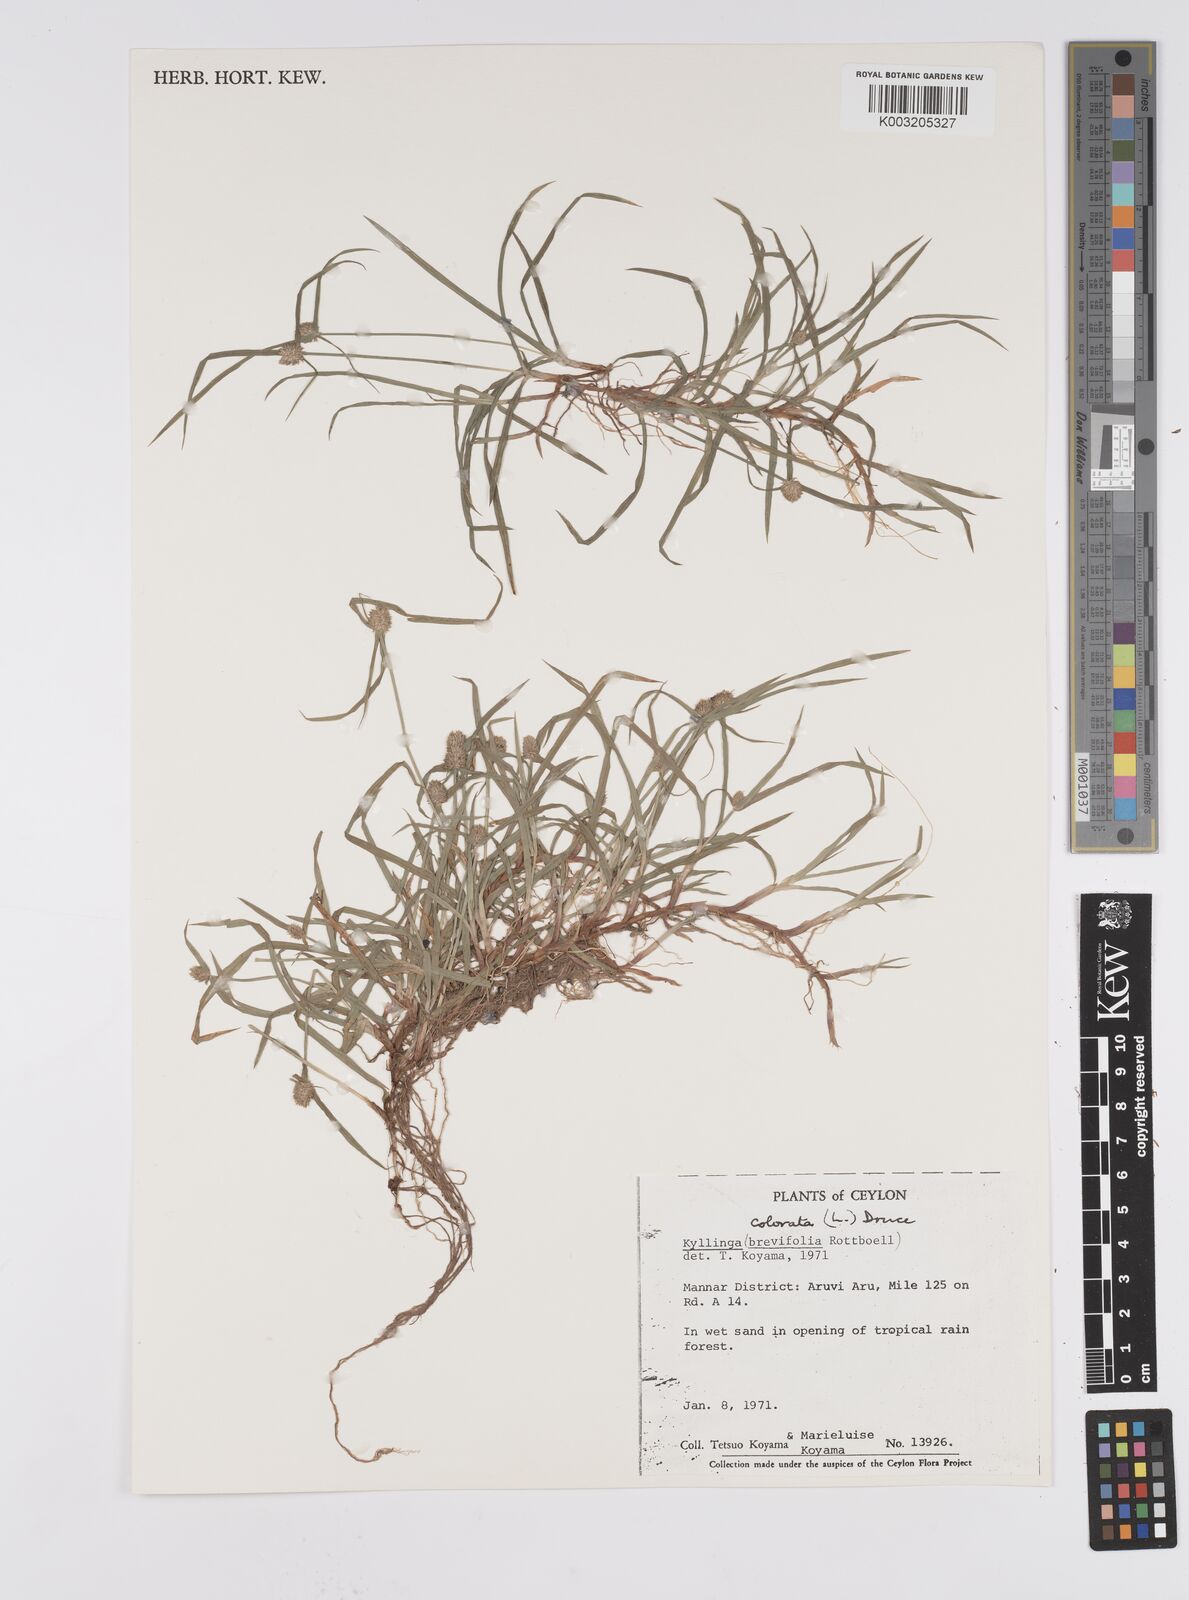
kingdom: Plantae
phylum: Tracheophyta
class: Liliopsida
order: Poales
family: Cyperaceae
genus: Cyperus
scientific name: Cyperus brevifolius
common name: Globe kyllinga
